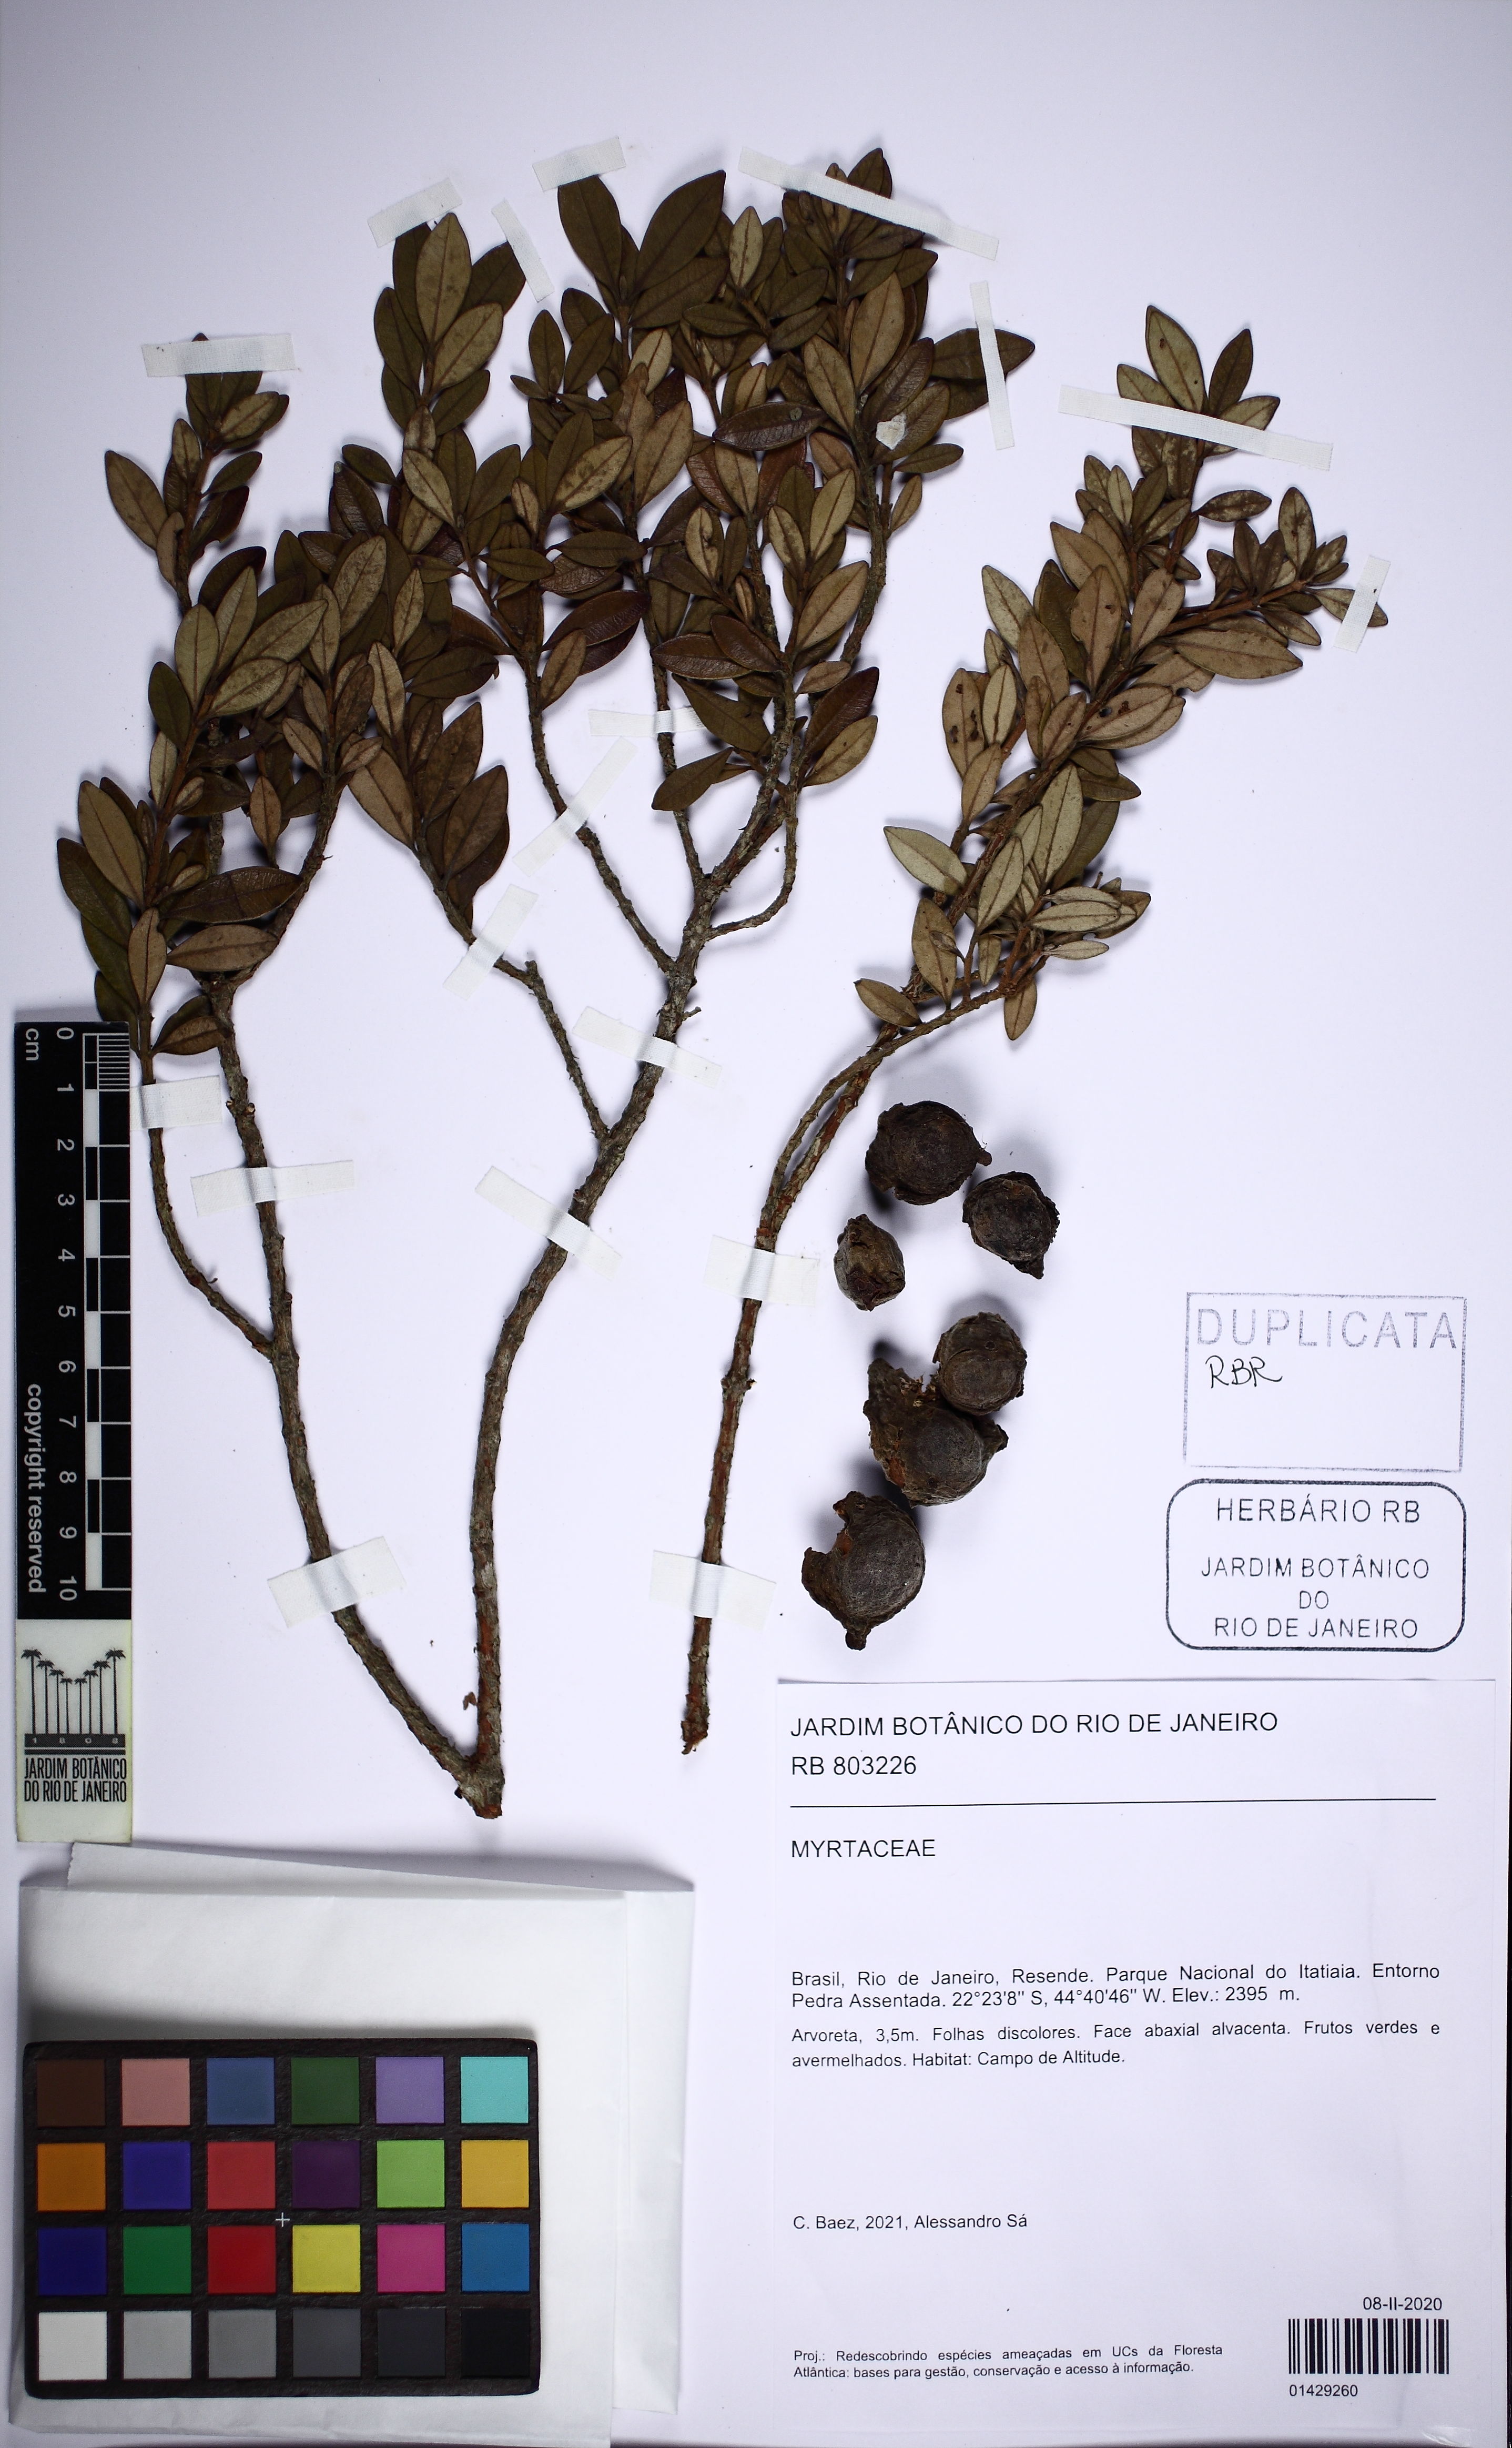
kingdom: Plantae
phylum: Tracheophyta
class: Magnoliopsida
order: Myrtales
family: Myrtaceae
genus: Eugenia
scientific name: Eugenia
